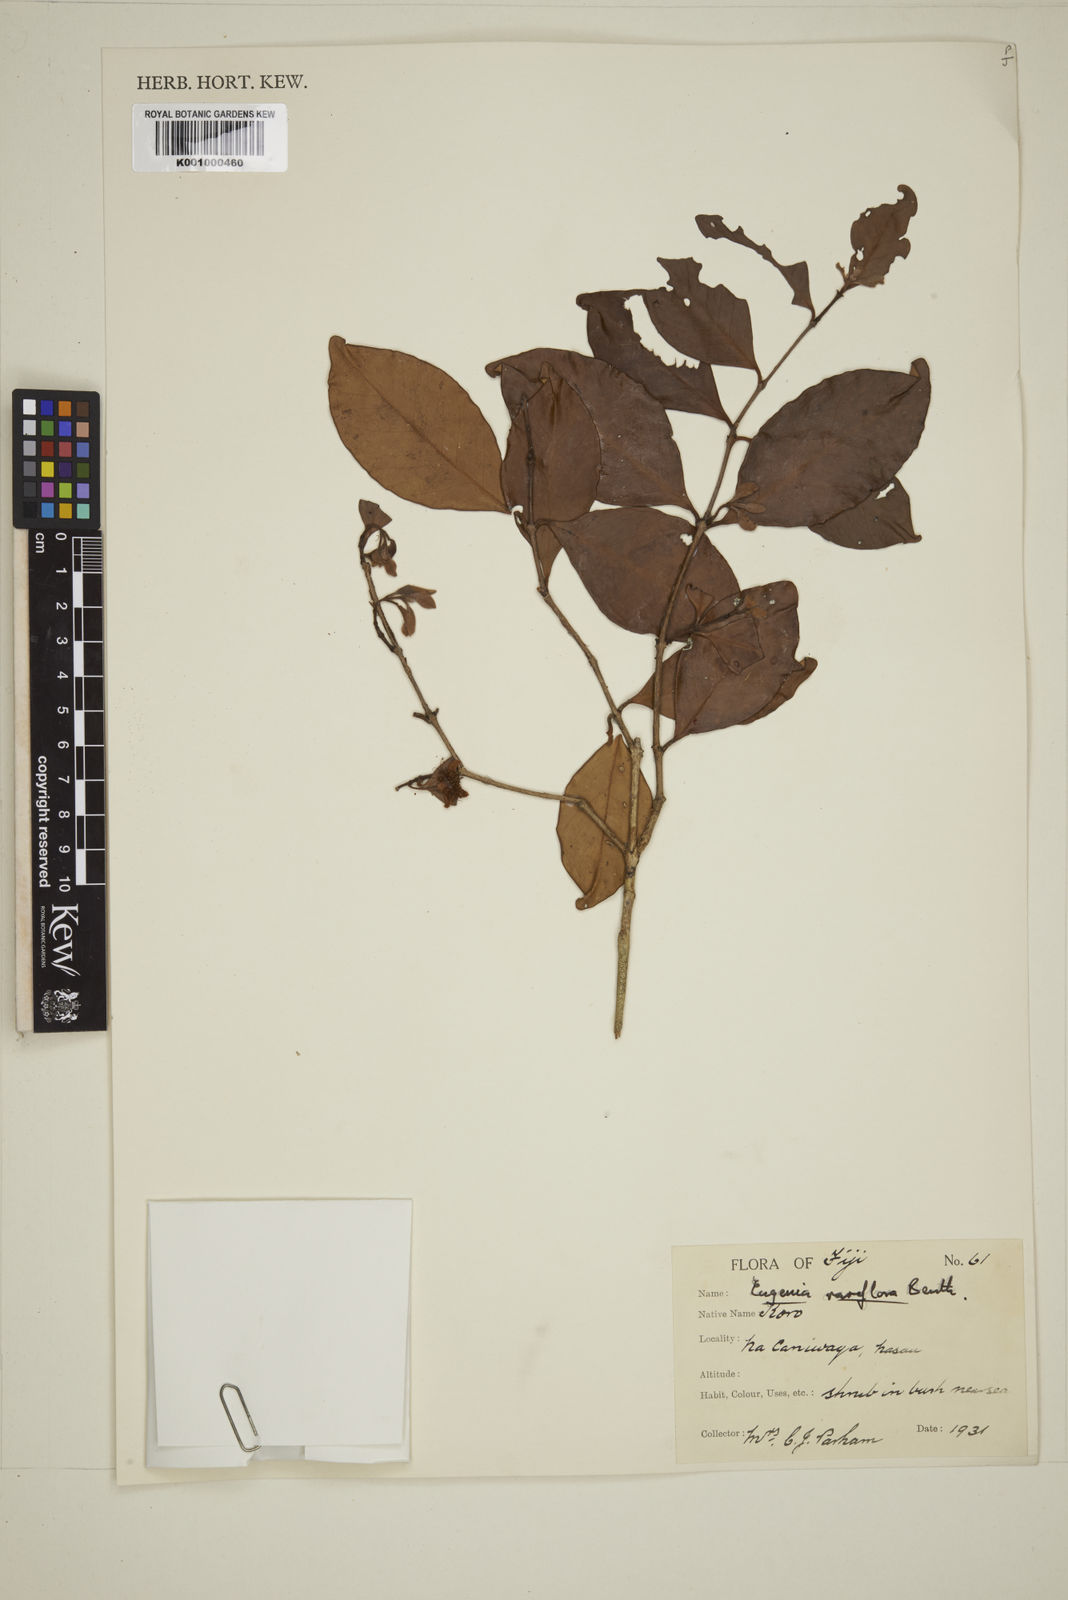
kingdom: Plantae
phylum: Tracheophyta
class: Magnoliopsida
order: Myrtales
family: Myrtaceae
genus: Eugenia
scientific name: Eugenia reinwardtiana
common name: Cedar bay-cherry
